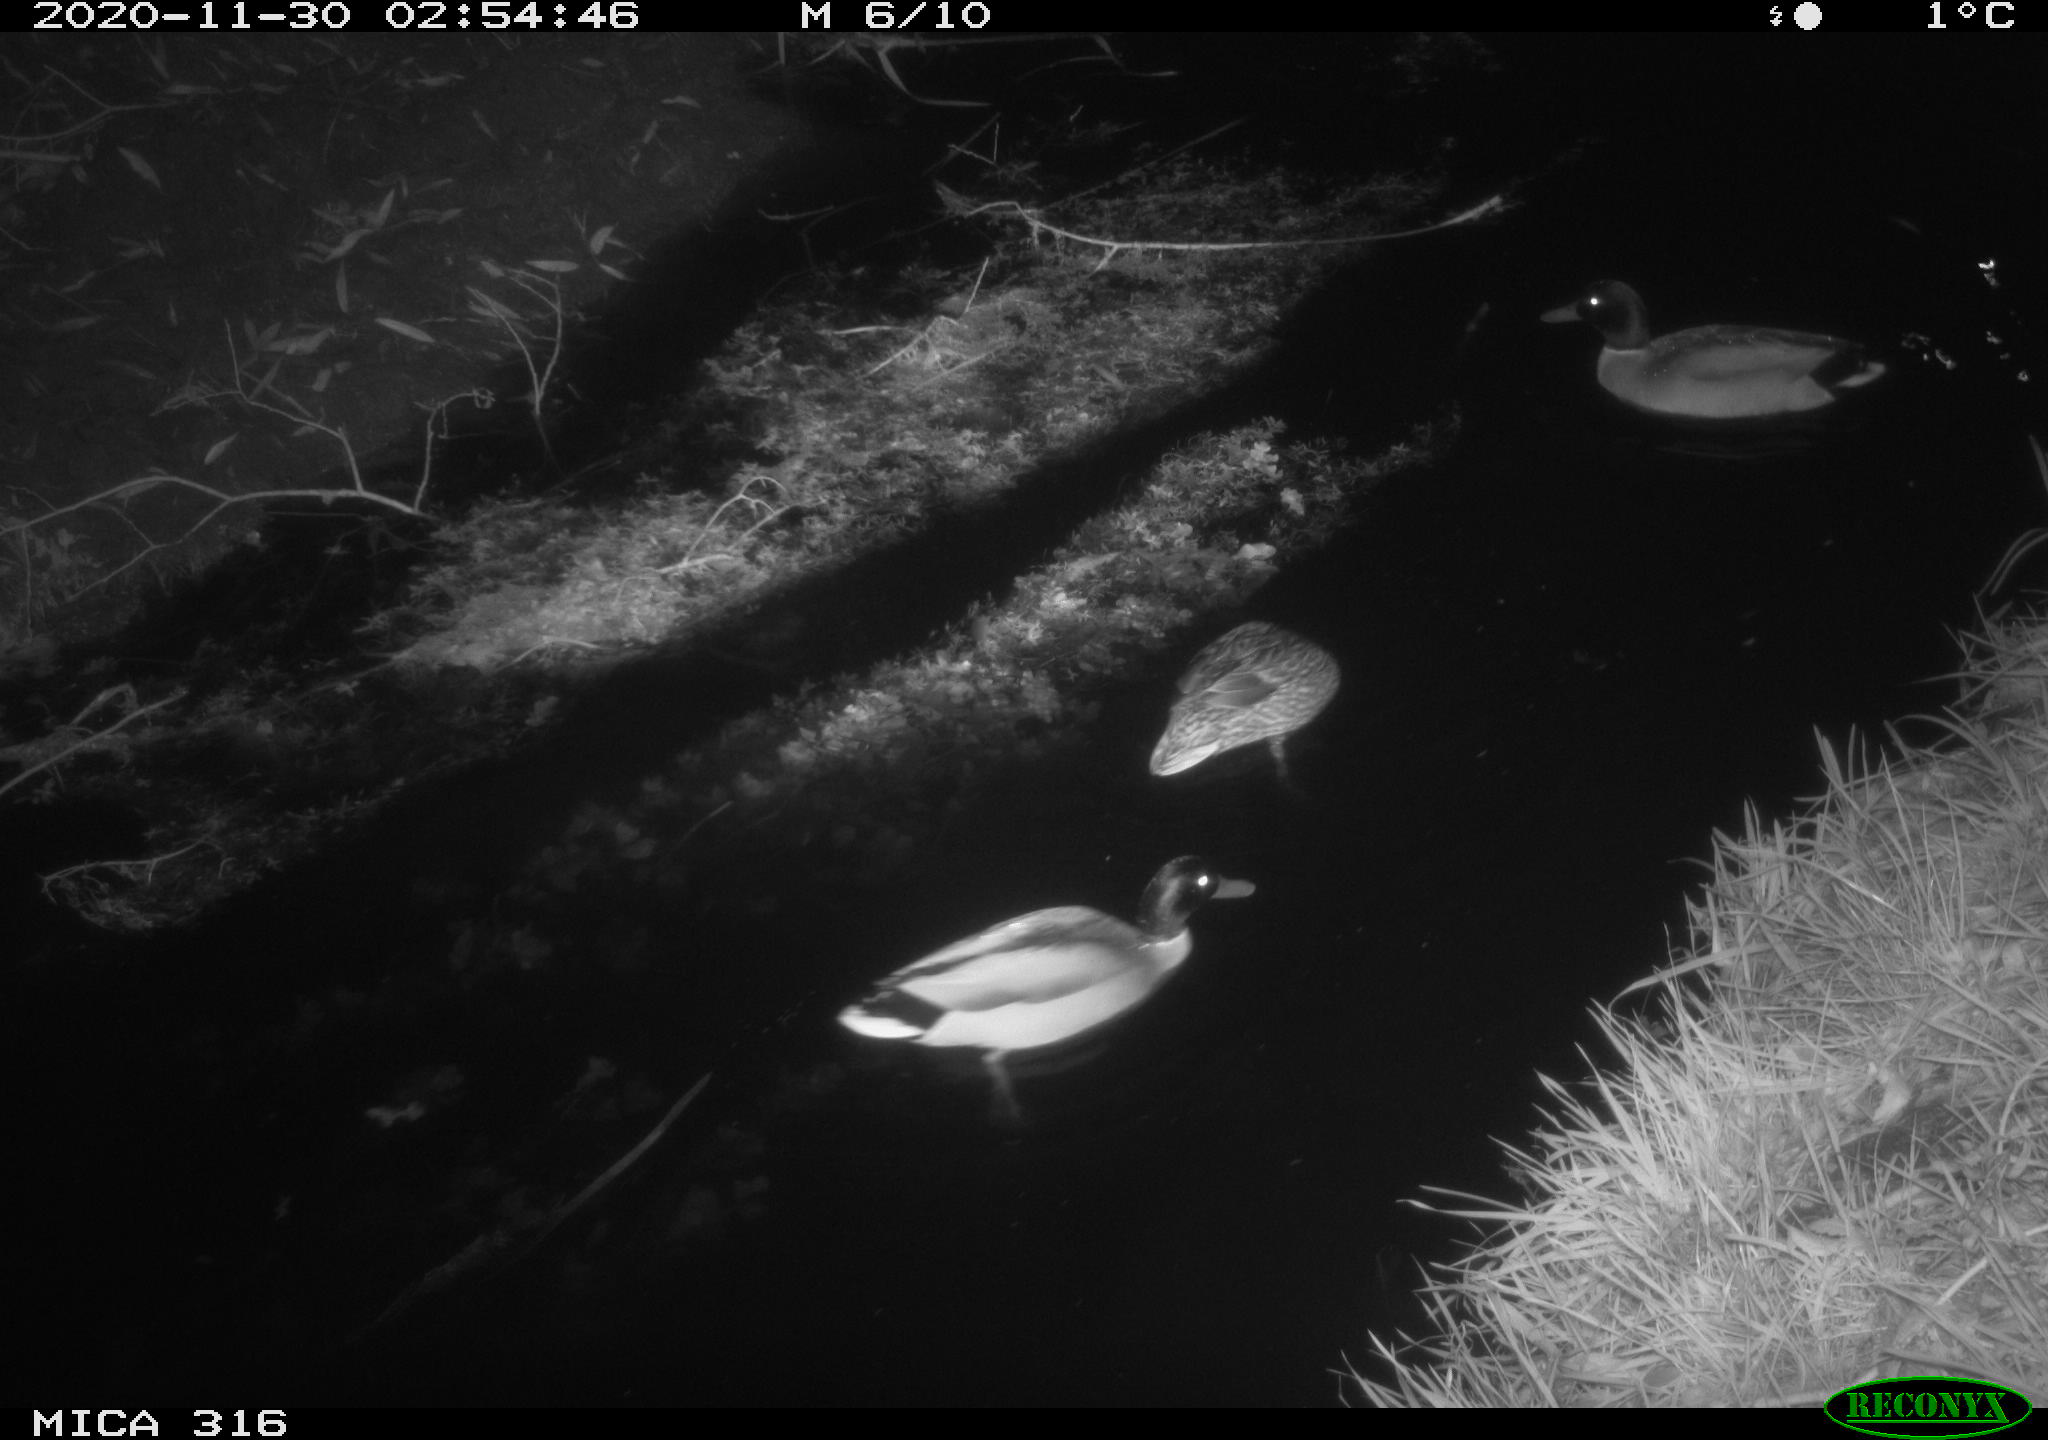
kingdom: Animalia
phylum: Chordata
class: Aves
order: Anseriformes
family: Anatidae
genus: Anas
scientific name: Anas platyrhynchos
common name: Mallard
